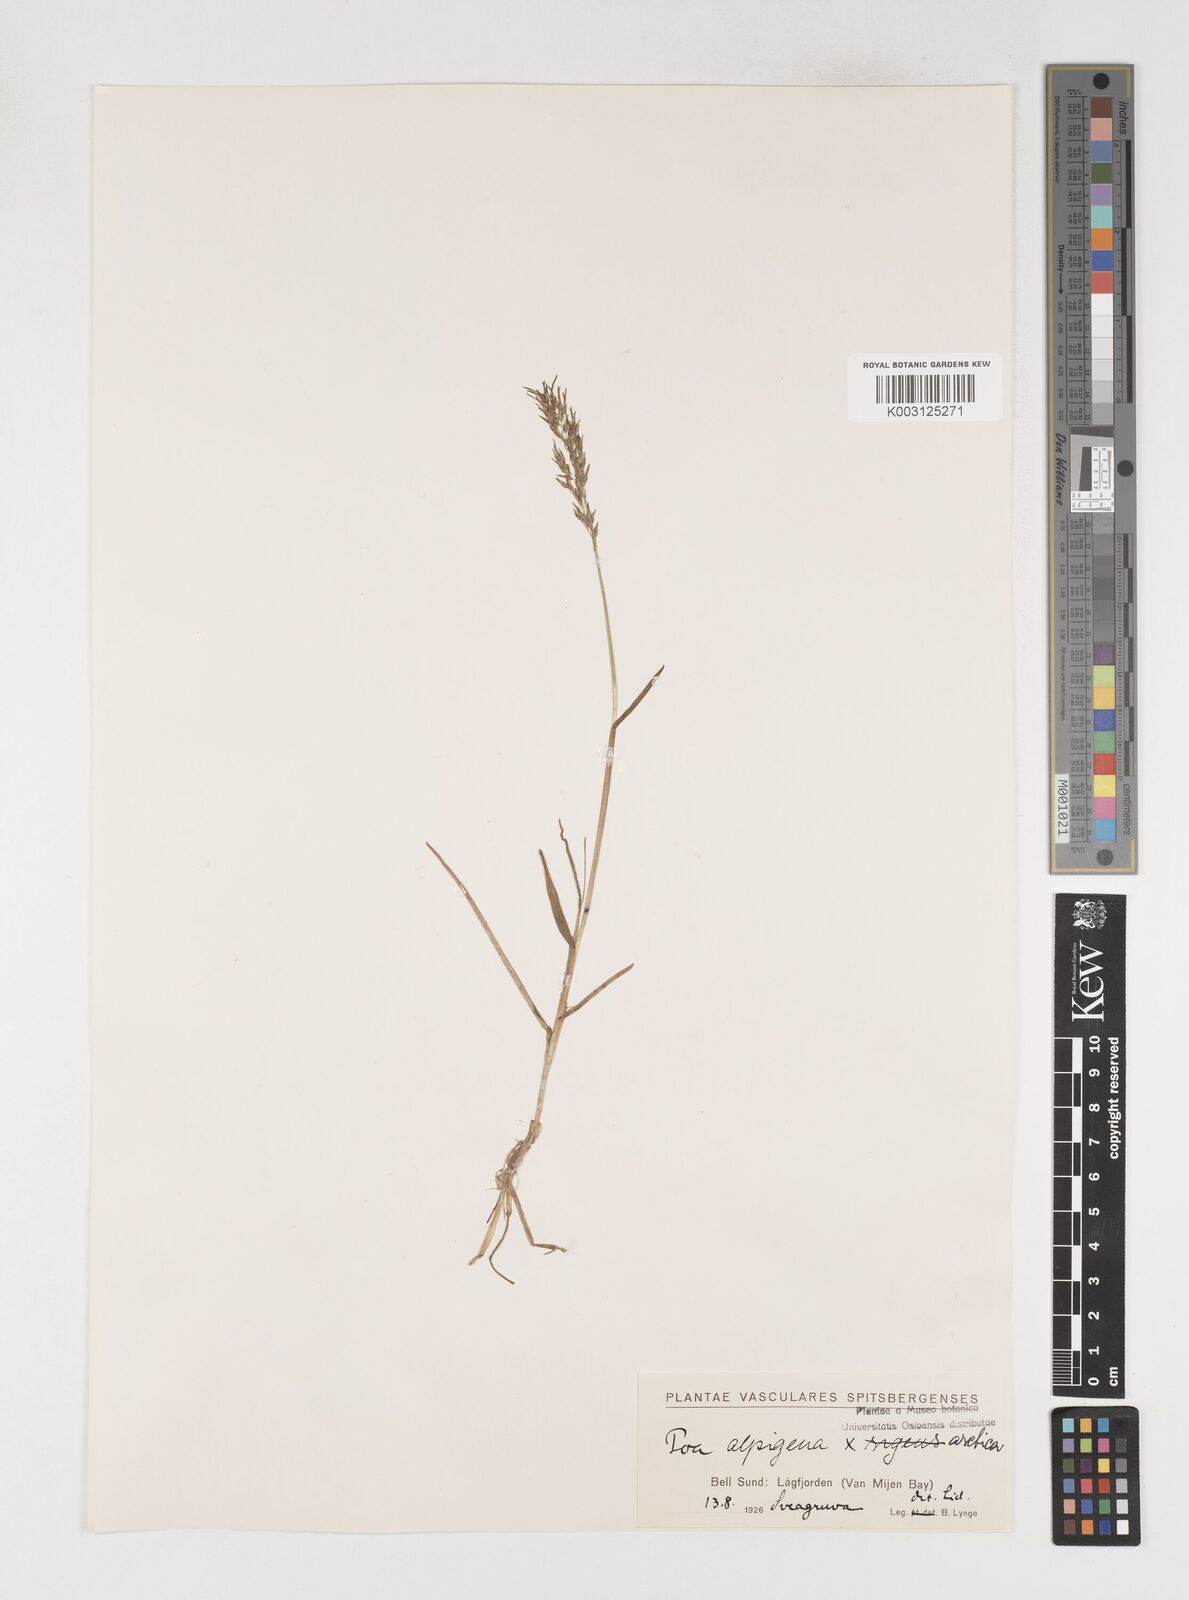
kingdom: Plantae
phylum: Tracheophyta
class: Liliopsida
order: Poales
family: Poaceae
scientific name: Poaceae
